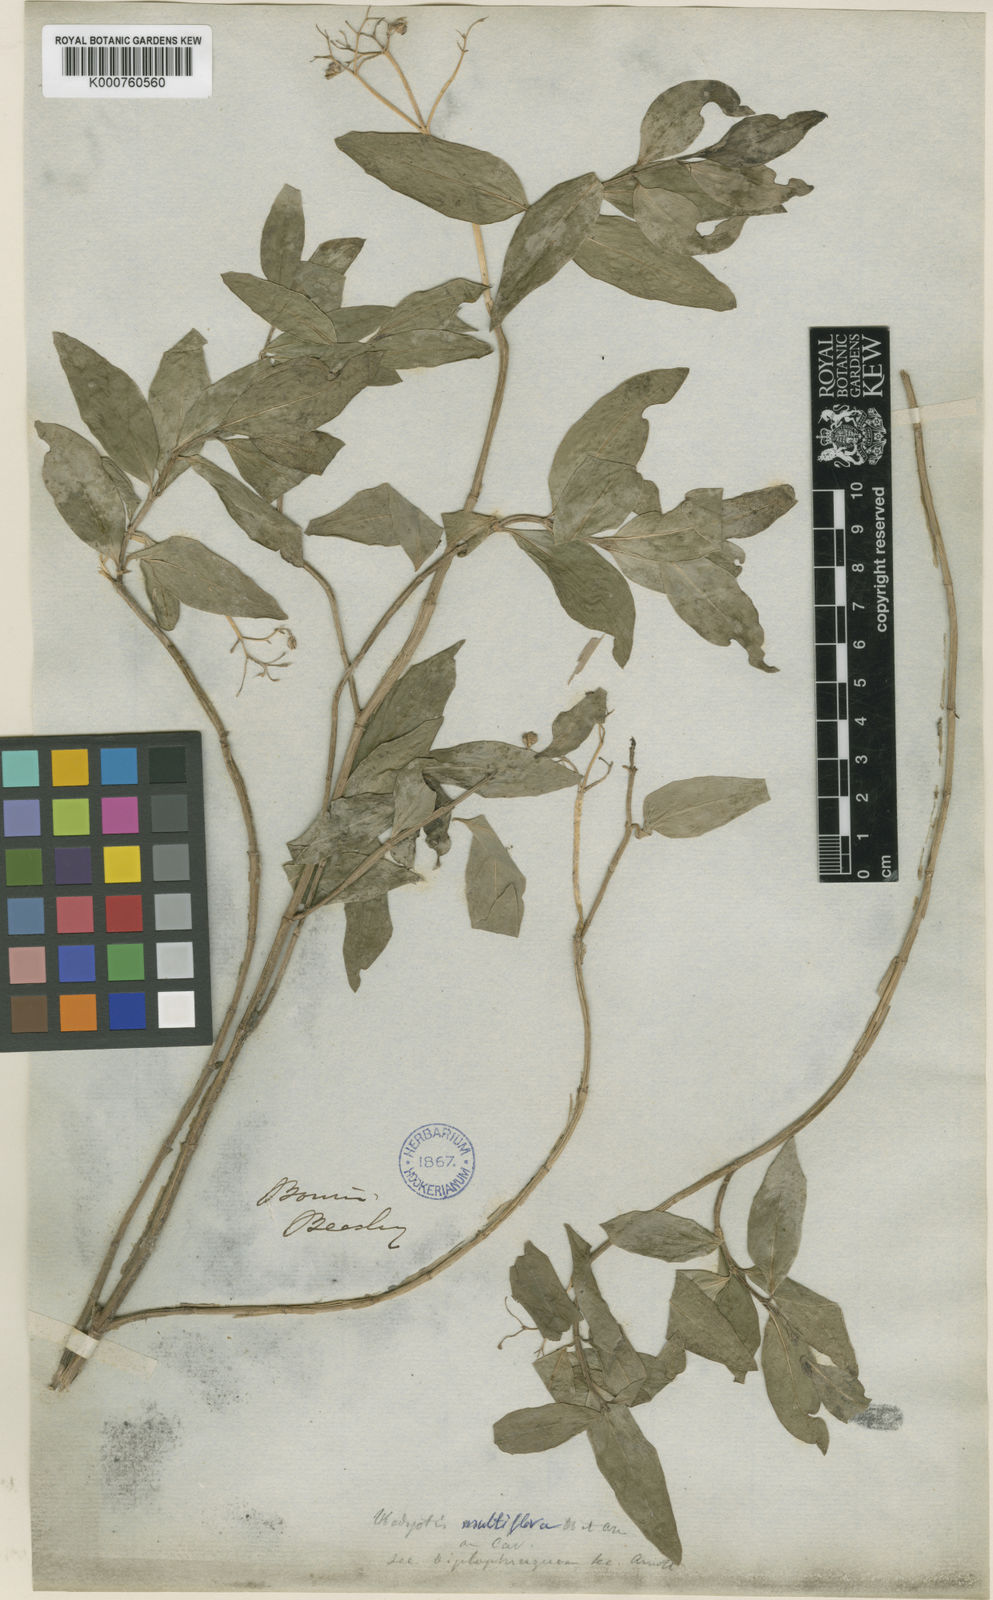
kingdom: Plantae
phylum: Tracheophyta
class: Magnoliopsida
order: Gentianales
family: Rubiaceae
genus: Leptopetalum
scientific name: Leptopetalum biflorum
